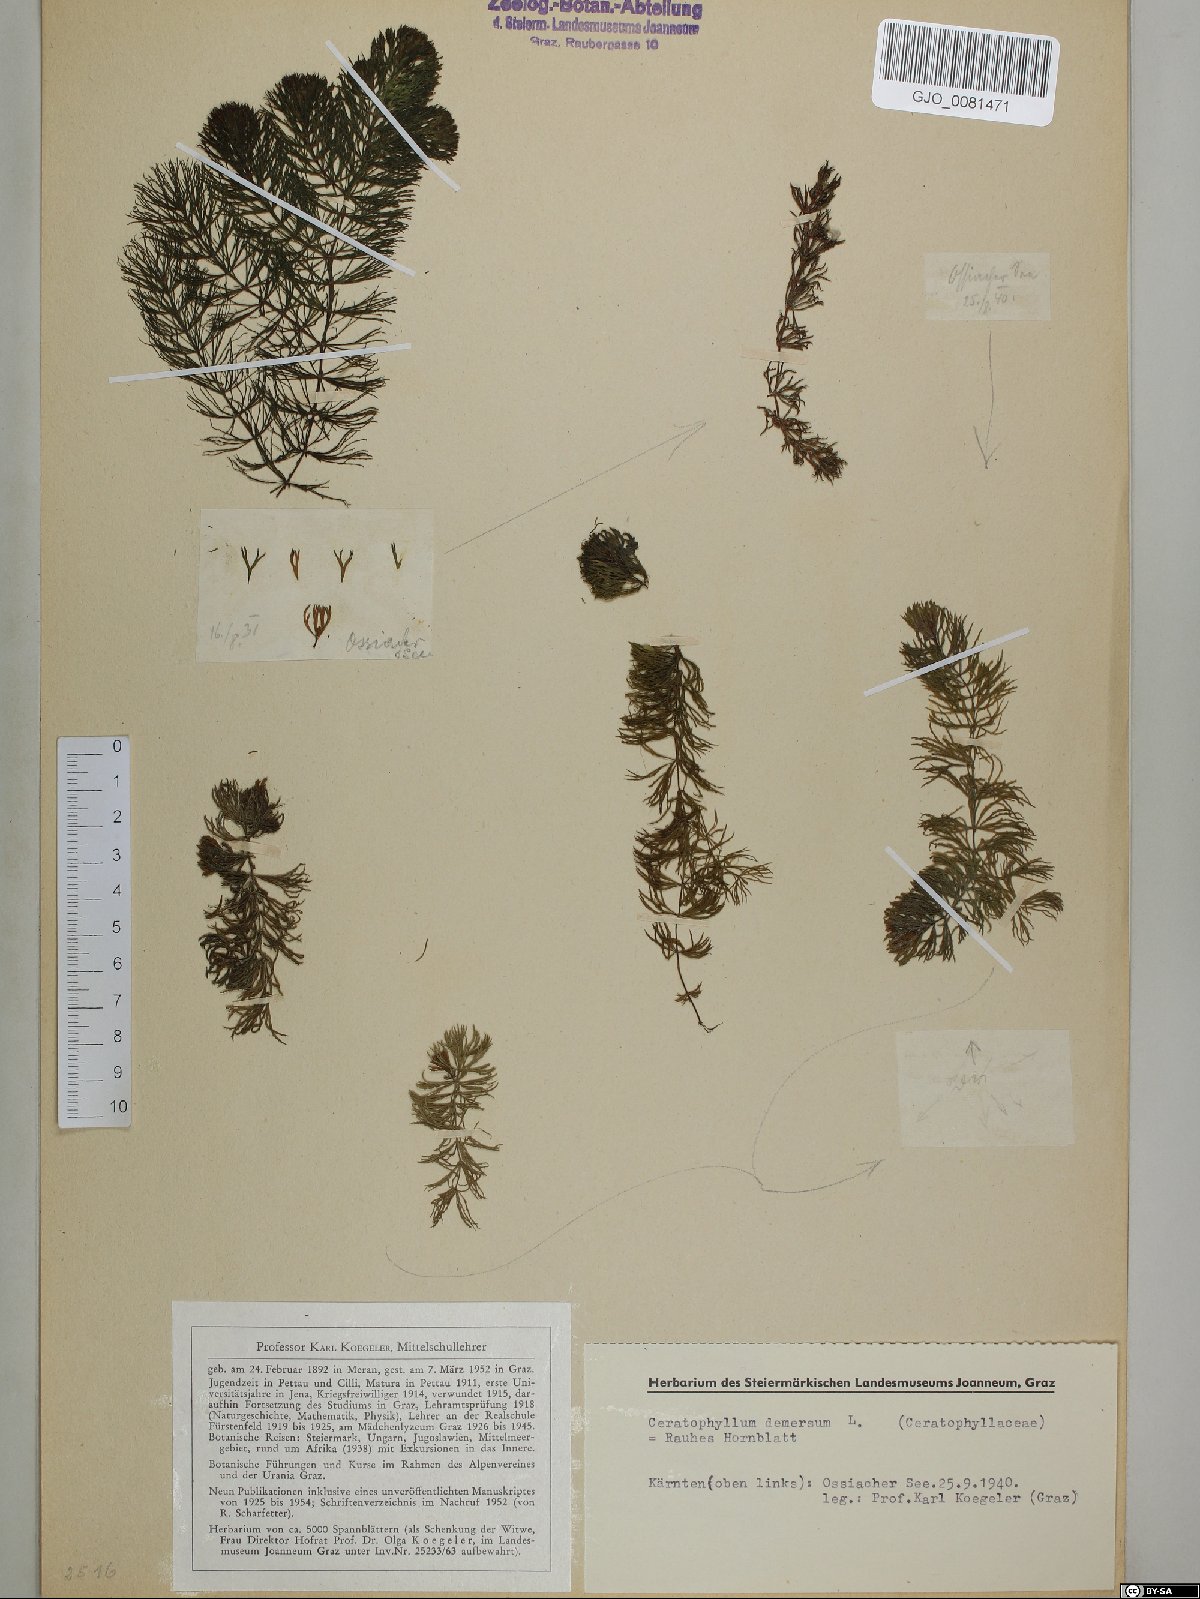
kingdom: Plantae
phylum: Tracheophyta
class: Magnoliopsida
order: Ceratophyllales
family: Ceratophyllaceae
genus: Ceratophyllum
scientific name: Ceratophyllum demersum
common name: Rigid hornwort
